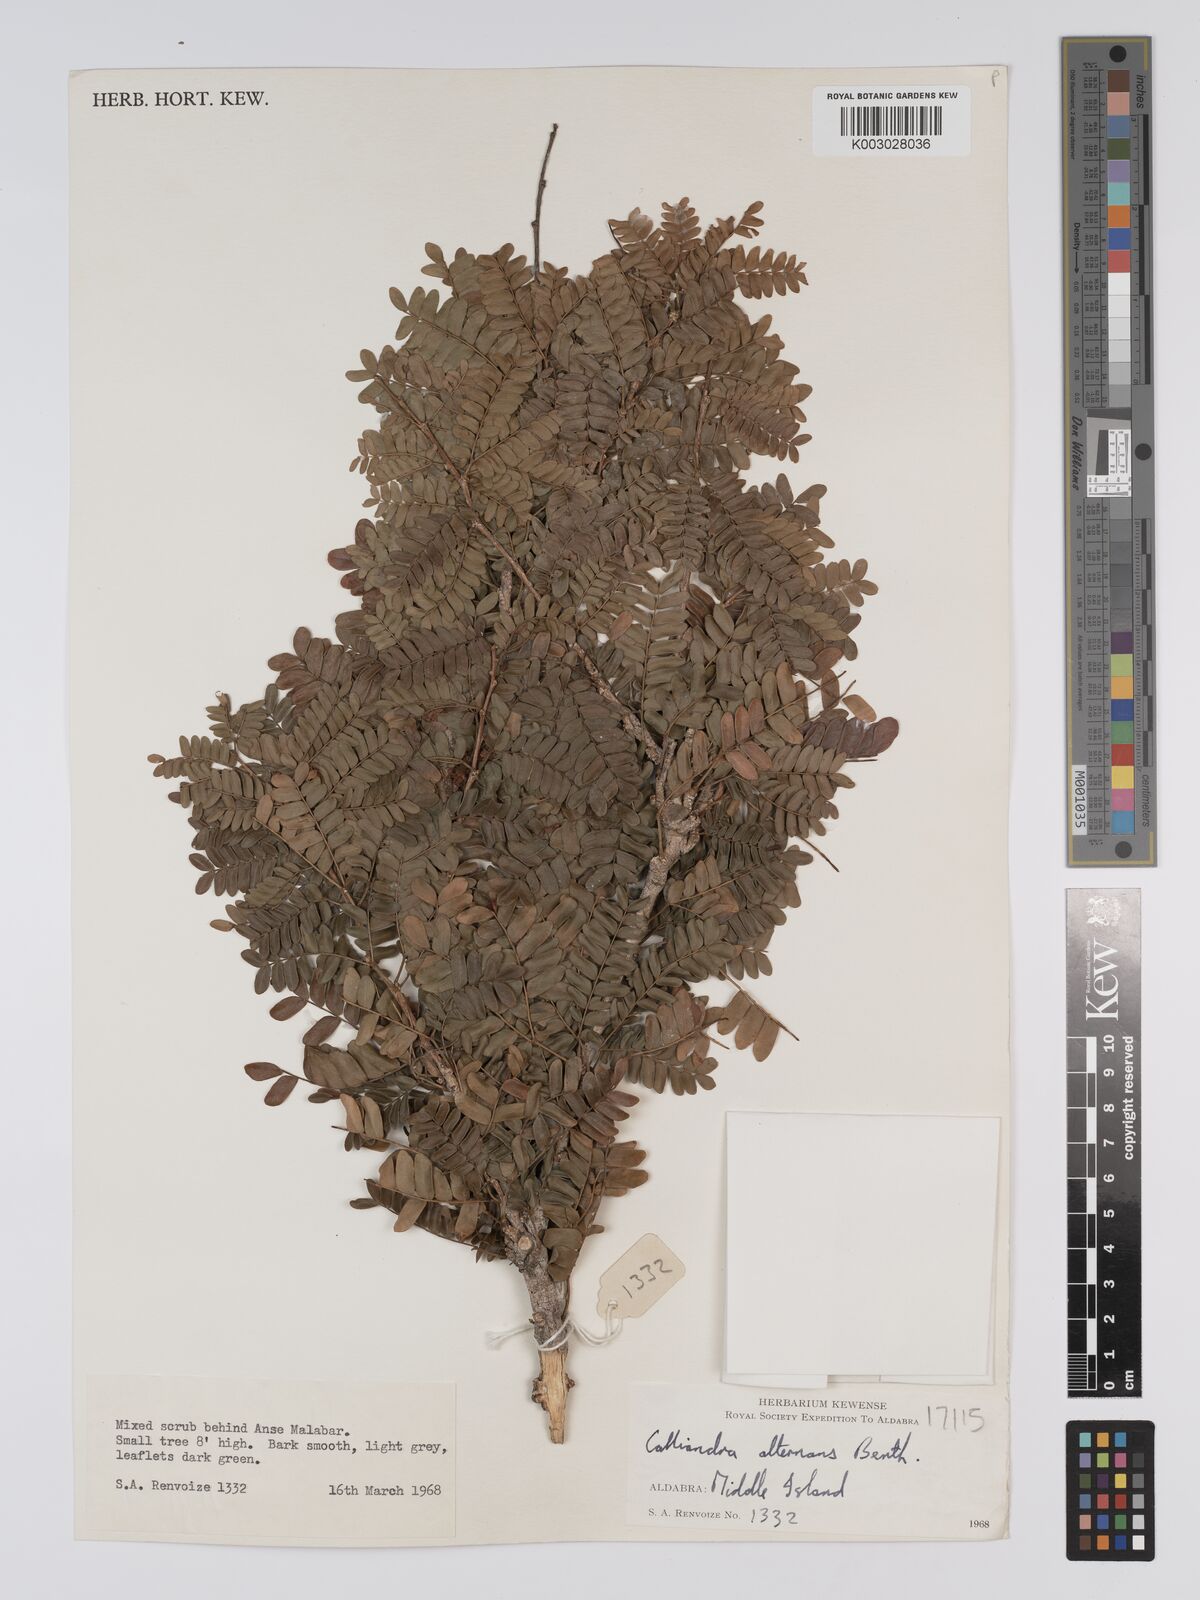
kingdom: Plantae
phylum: Tracheophyta
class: Magnoliopsida
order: Fabales
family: Fabaceae
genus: Viguieranthus
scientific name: Viguieranthus alternans
